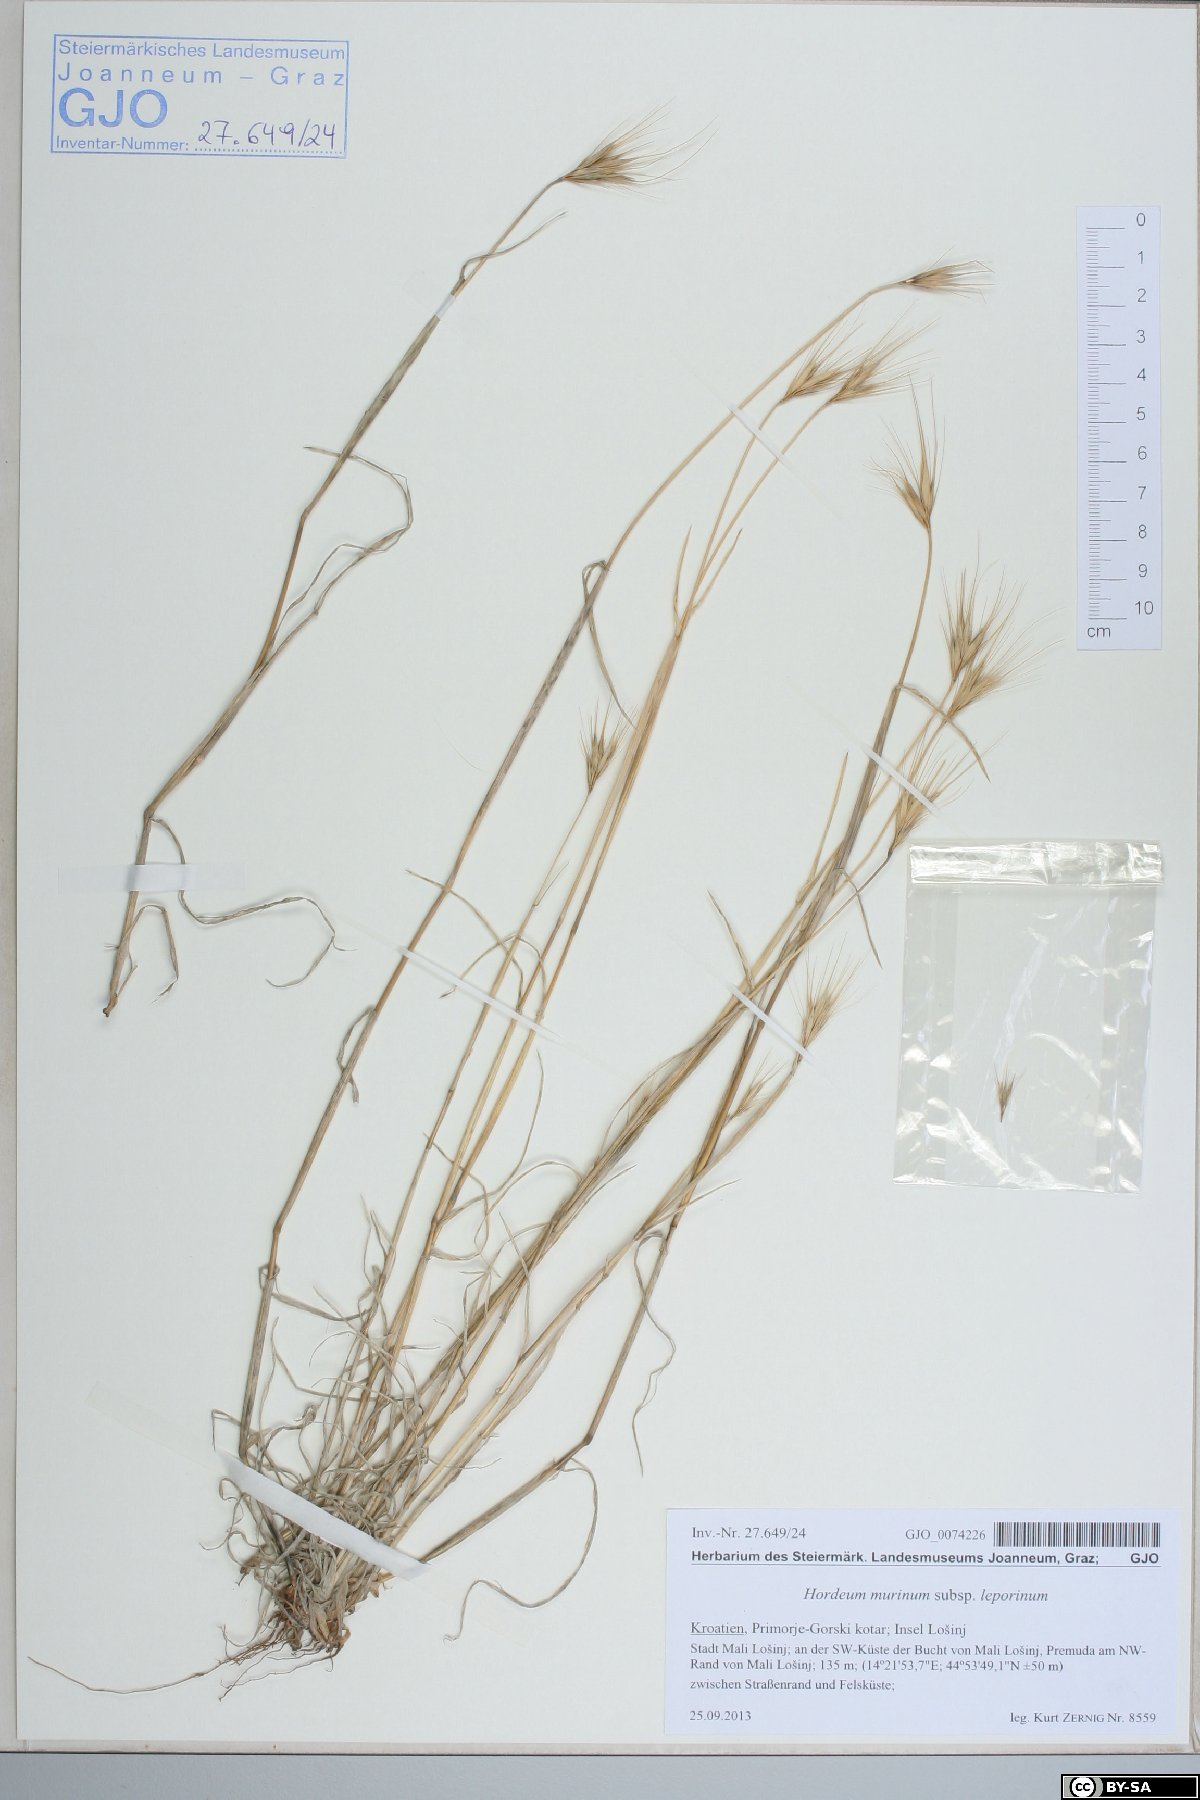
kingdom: Plantae
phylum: Tracheophyta
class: Liliopsida
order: Poales
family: Poaceae
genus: Hordeum
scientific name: Hordeum murinum
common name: Wall barley
